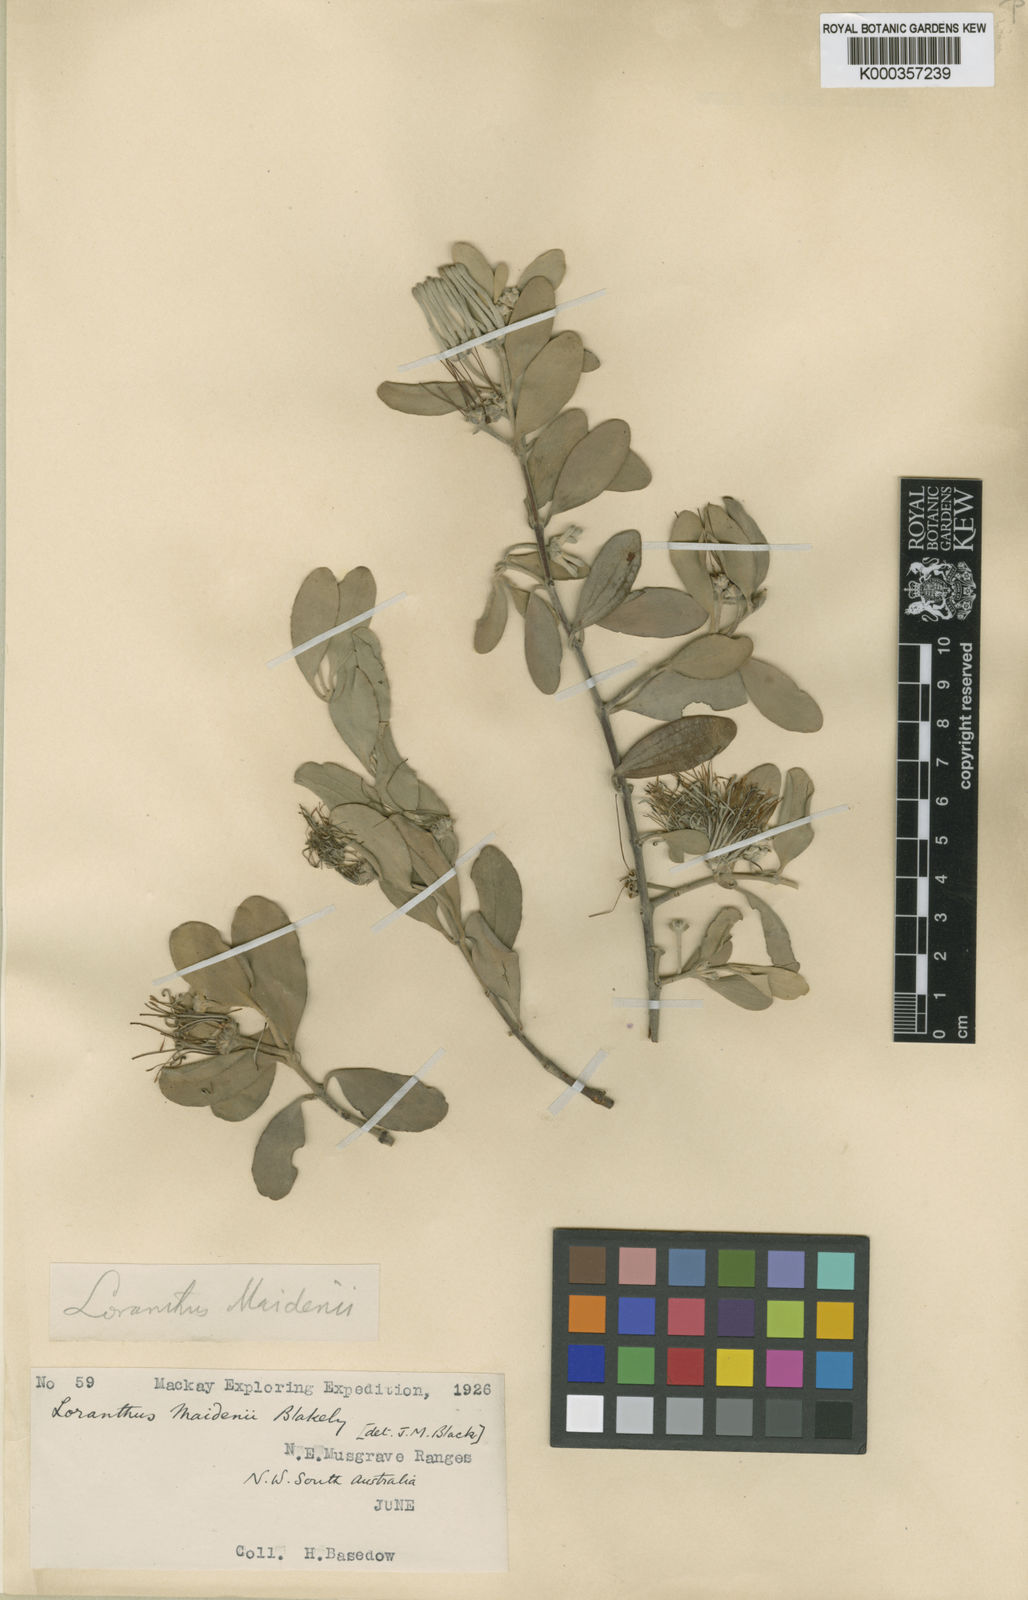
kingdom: Plantae
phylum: Tracheophyta
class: Magnoliopsida
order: Santalales
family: Loranthaceae
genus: Amyema
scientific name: Amyema maidenii
